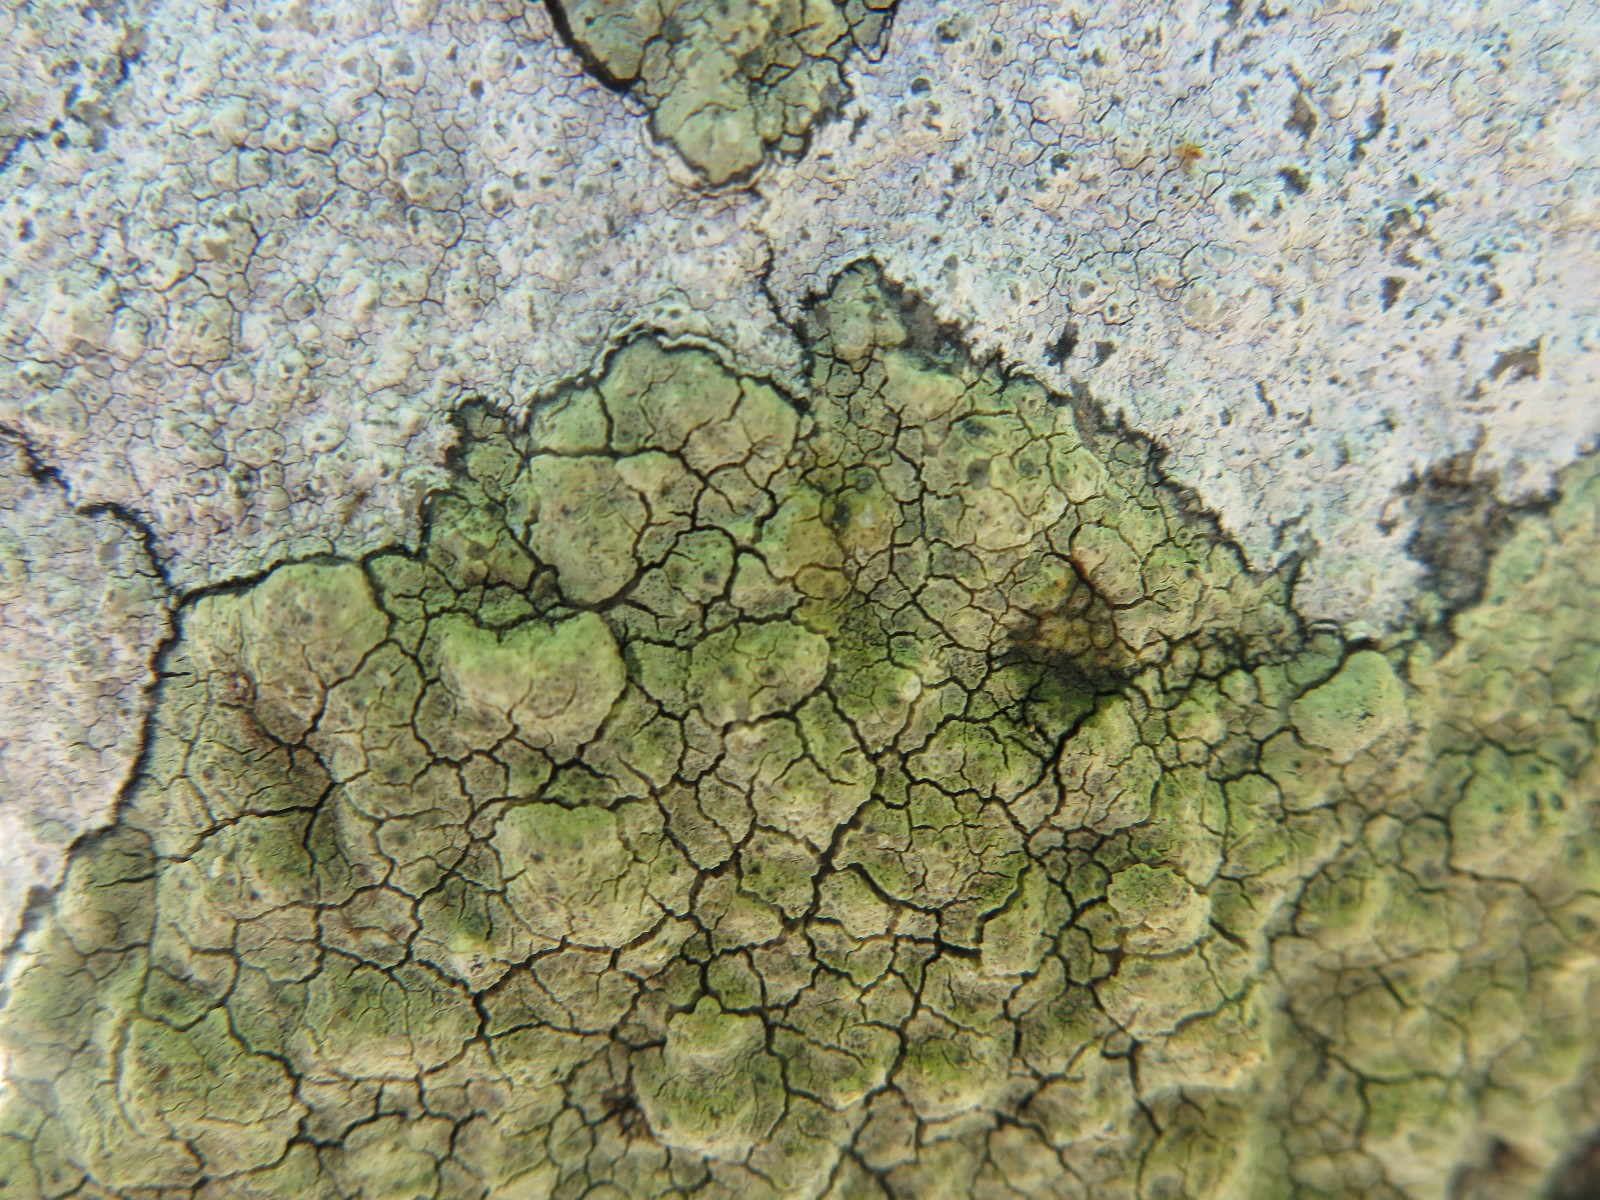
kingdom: Fungi
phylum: Ascomycota
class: Lecanoromycetes
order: Lecanorales
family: Lecanoraceae
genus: Glaucomaria
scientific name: Glaucomaria sulphurea
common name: svovlgul kantskivelav
